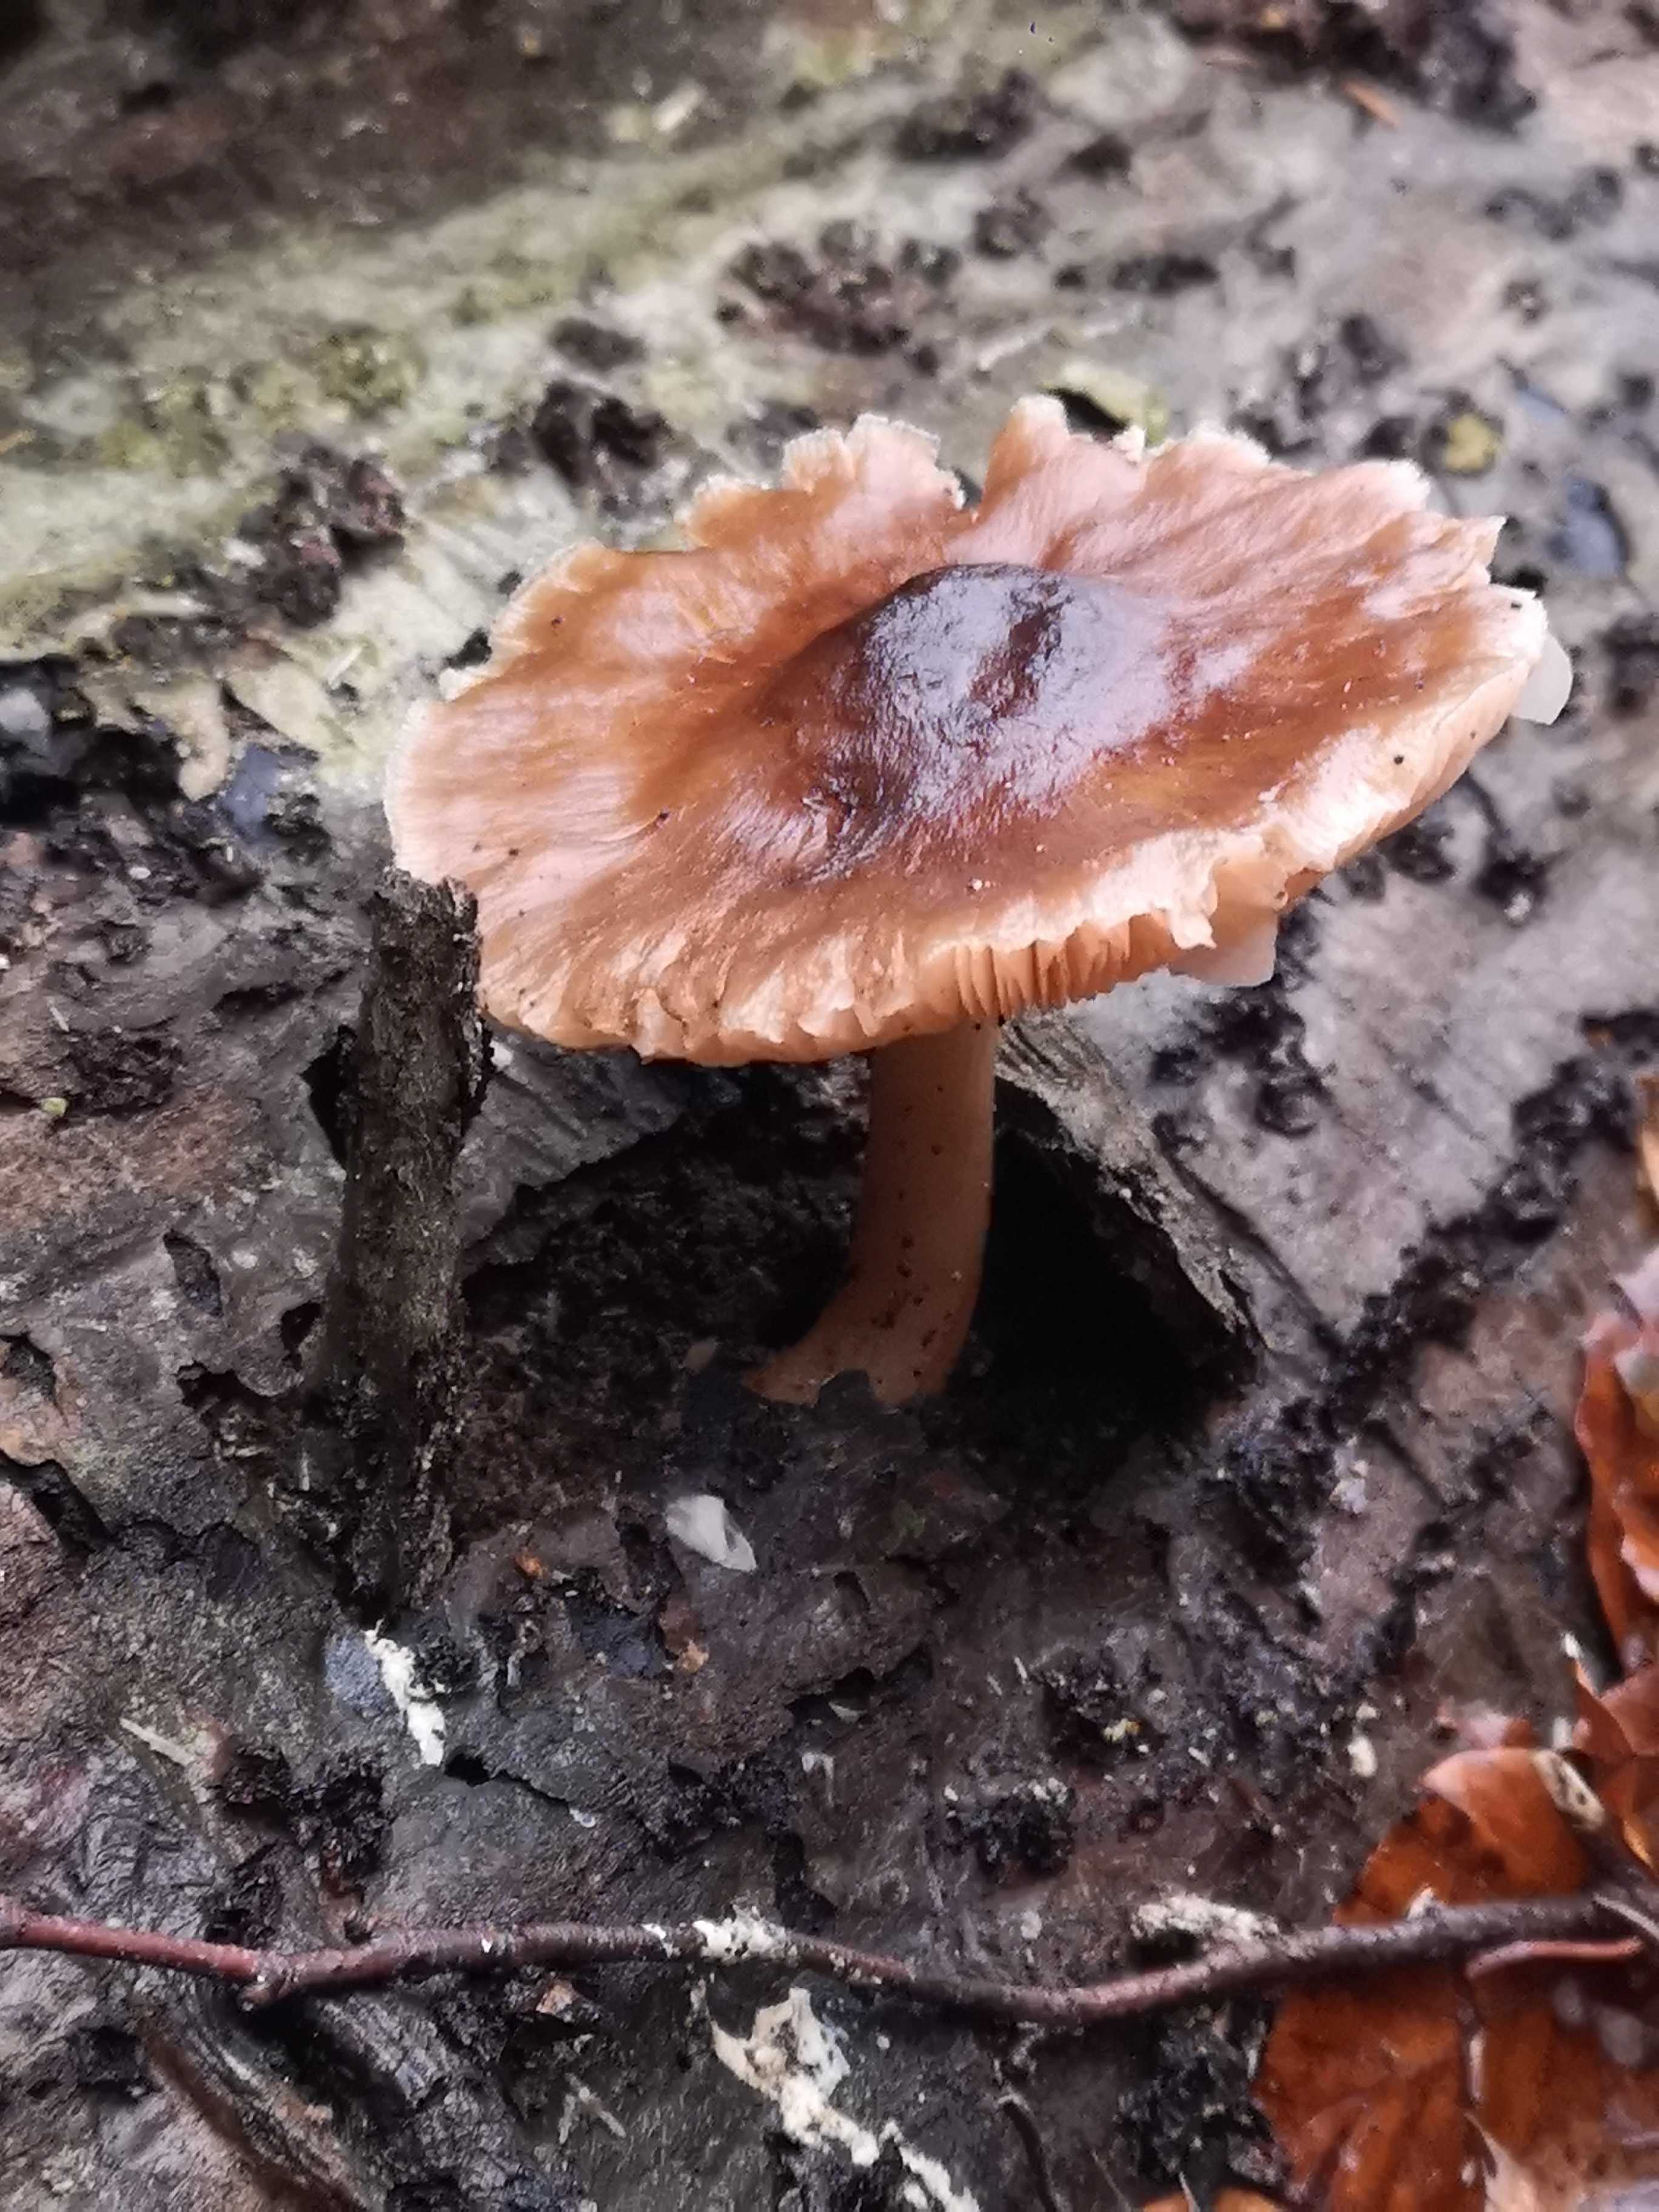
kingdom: Fungi
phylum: Basidiomycota
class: Agaricomycetes
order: Agaricales
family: Pluteaceae
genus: Pluteus
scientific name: Pluteus cervinus
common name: sodfarvet skærmhat
